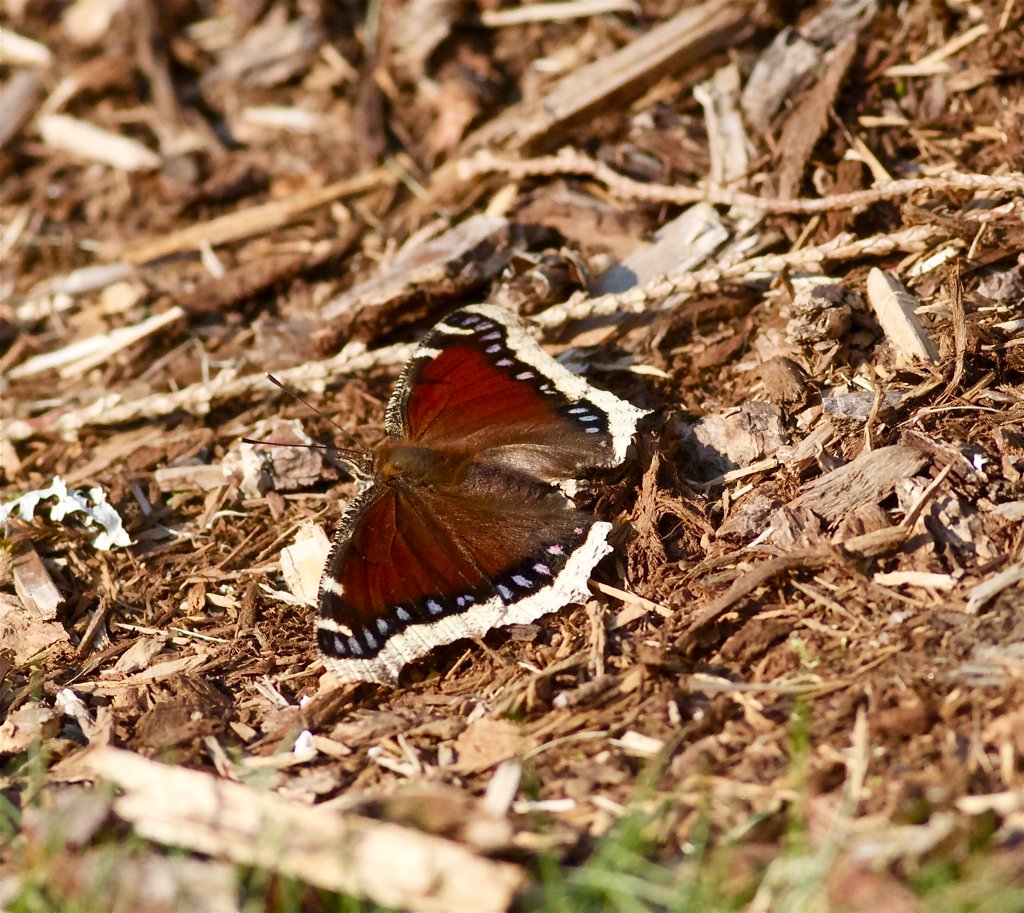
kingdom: Animalia
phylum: Arthropoda
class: Insecta
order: Lepidoptera
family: Nymphalidae
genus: Nymphalis
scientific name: Nymphalis antiopa
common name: Mourning Cloak
